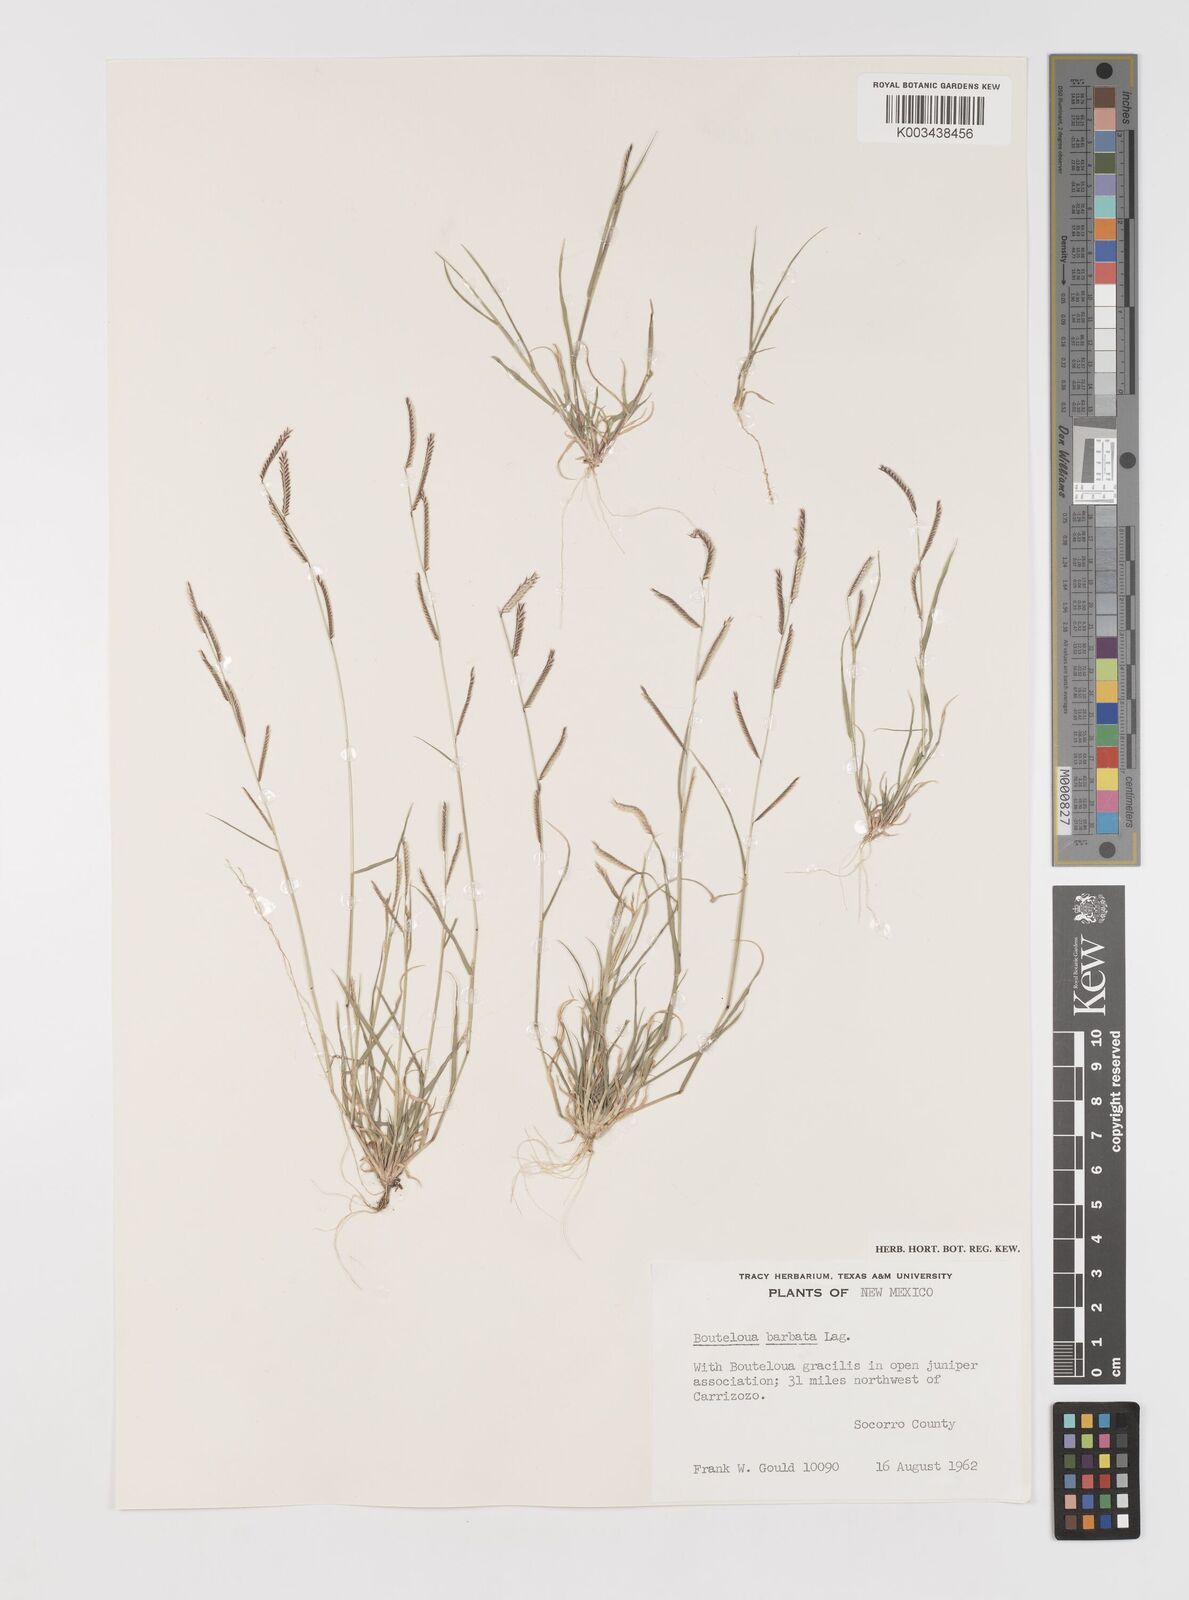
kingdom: Plantae
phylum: Tracheophyta
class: Liliopsida
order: Poales
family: Poaceae
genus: Bouteloua
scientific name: Bouteloua
